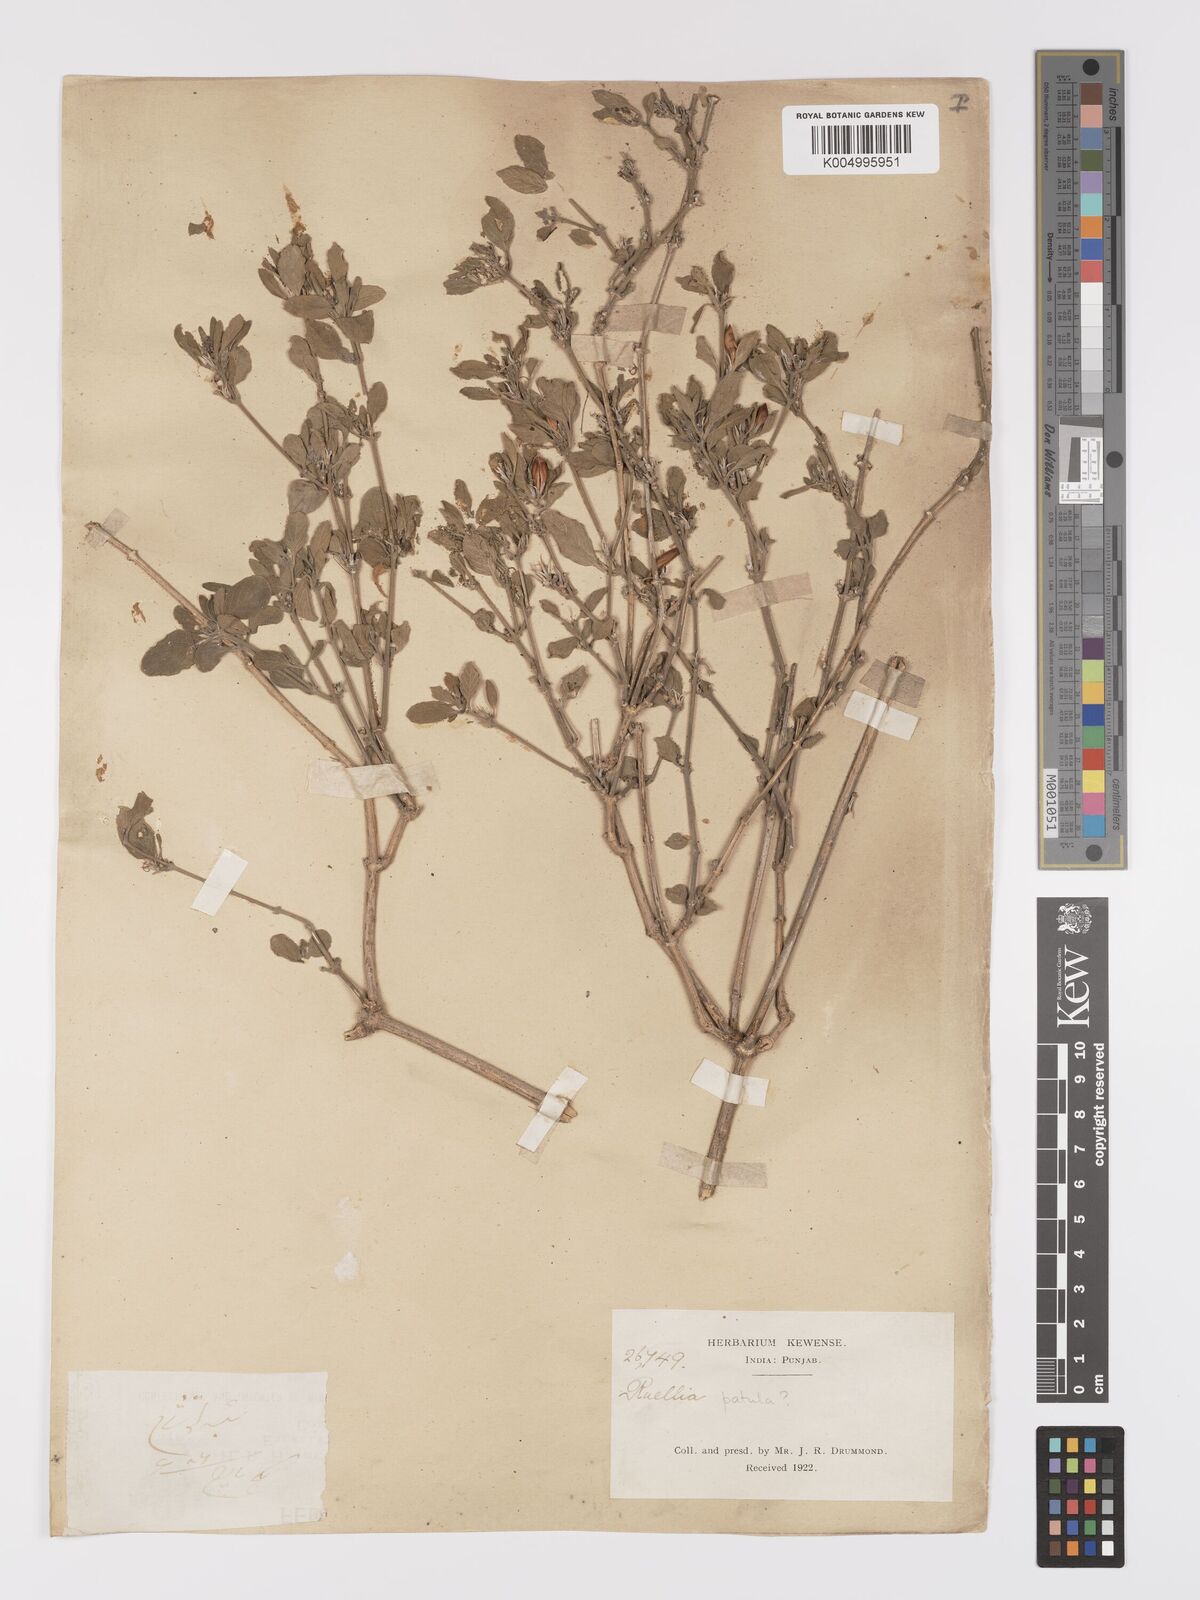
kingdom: Plantae
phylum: Tracheophyta
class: Magnoliopsida
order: Lamiales
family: Acanthaceae
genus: Ruellia
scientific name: Ruellia
